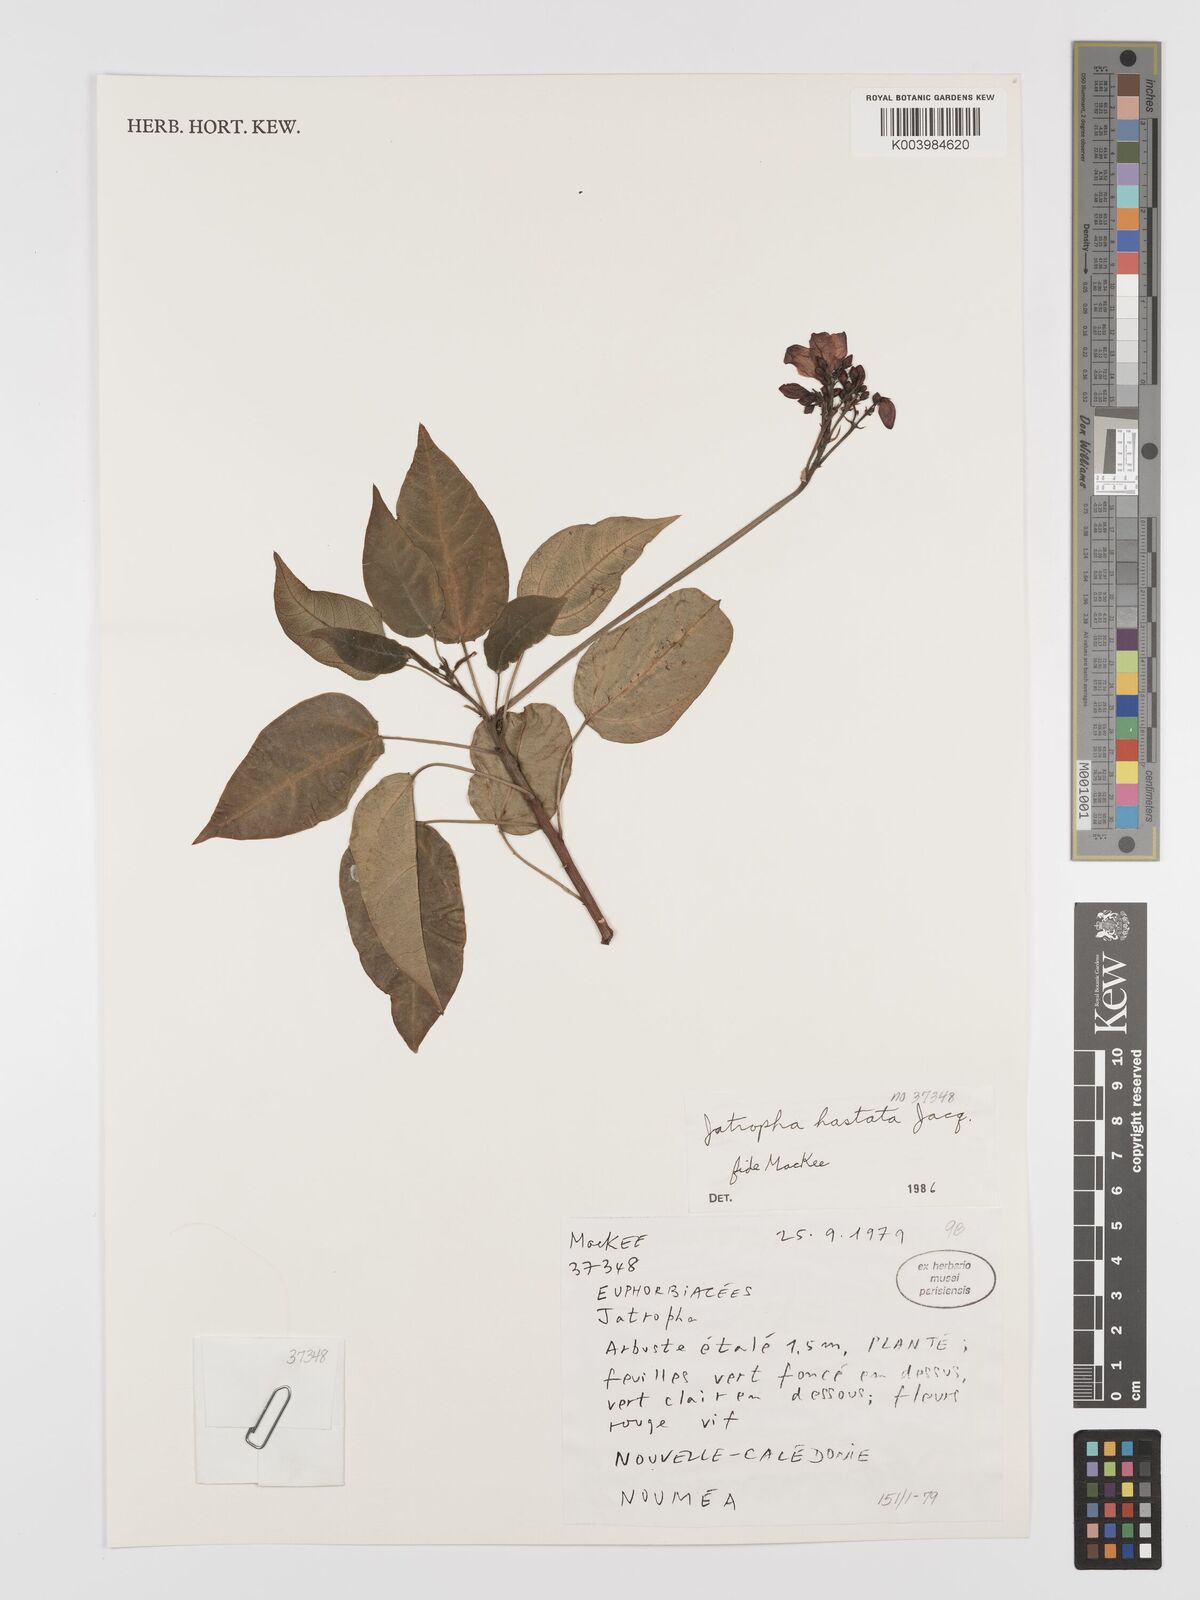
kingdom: Plantae
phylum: Tracheophyta
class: Magnoliopsida
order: Malpighiales
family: Euphorbiaceae
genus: Jatropha
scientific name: Jatropha
